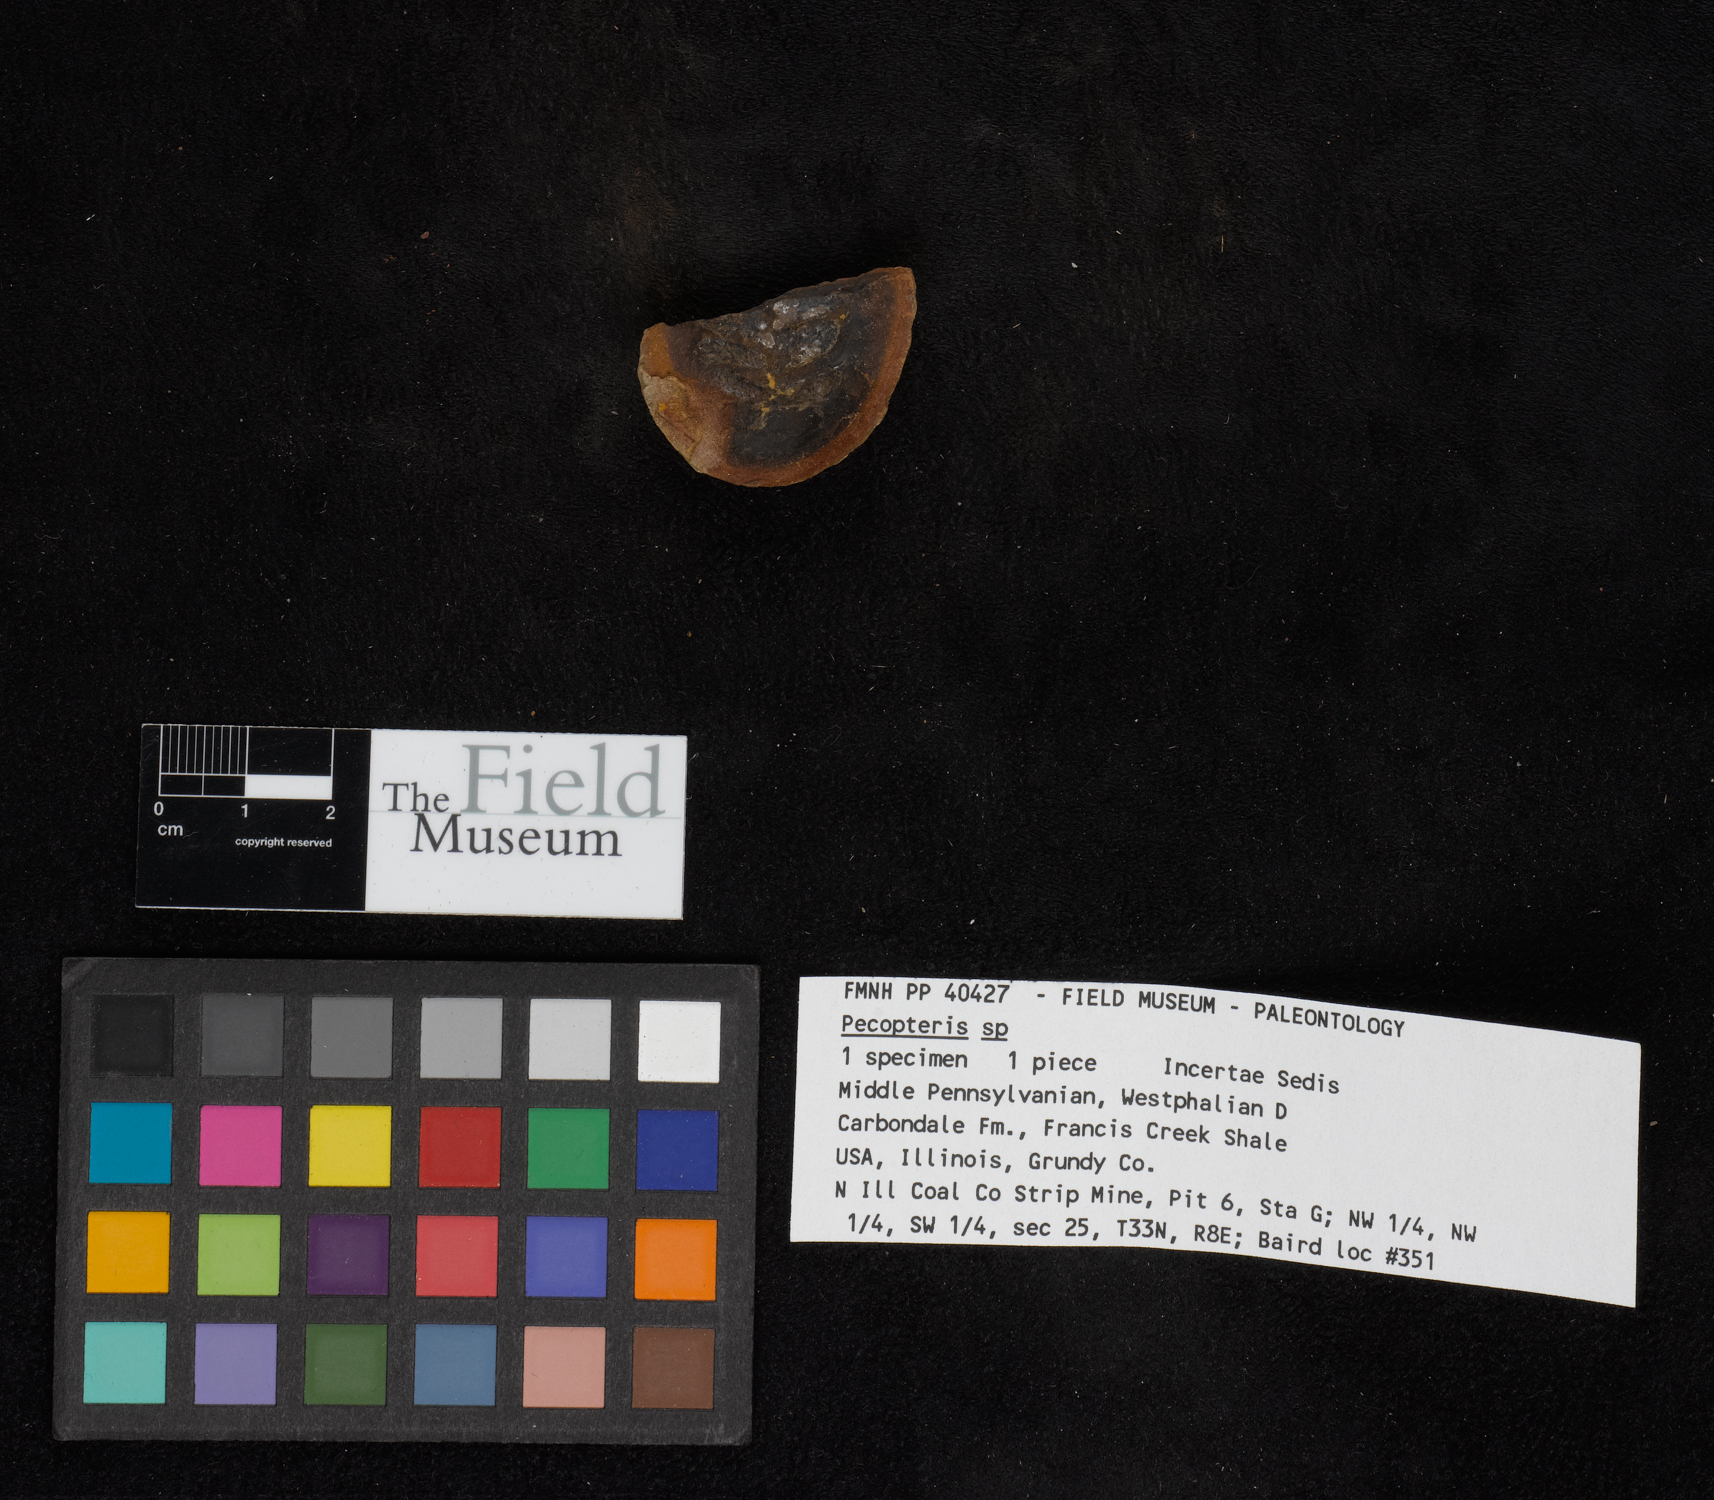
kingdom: Plantae
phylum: Tracheophyta
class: Polypodiopsida
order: Marattiales
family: Asterothecaceae
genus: Pecopteris
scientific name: Pecopteris
